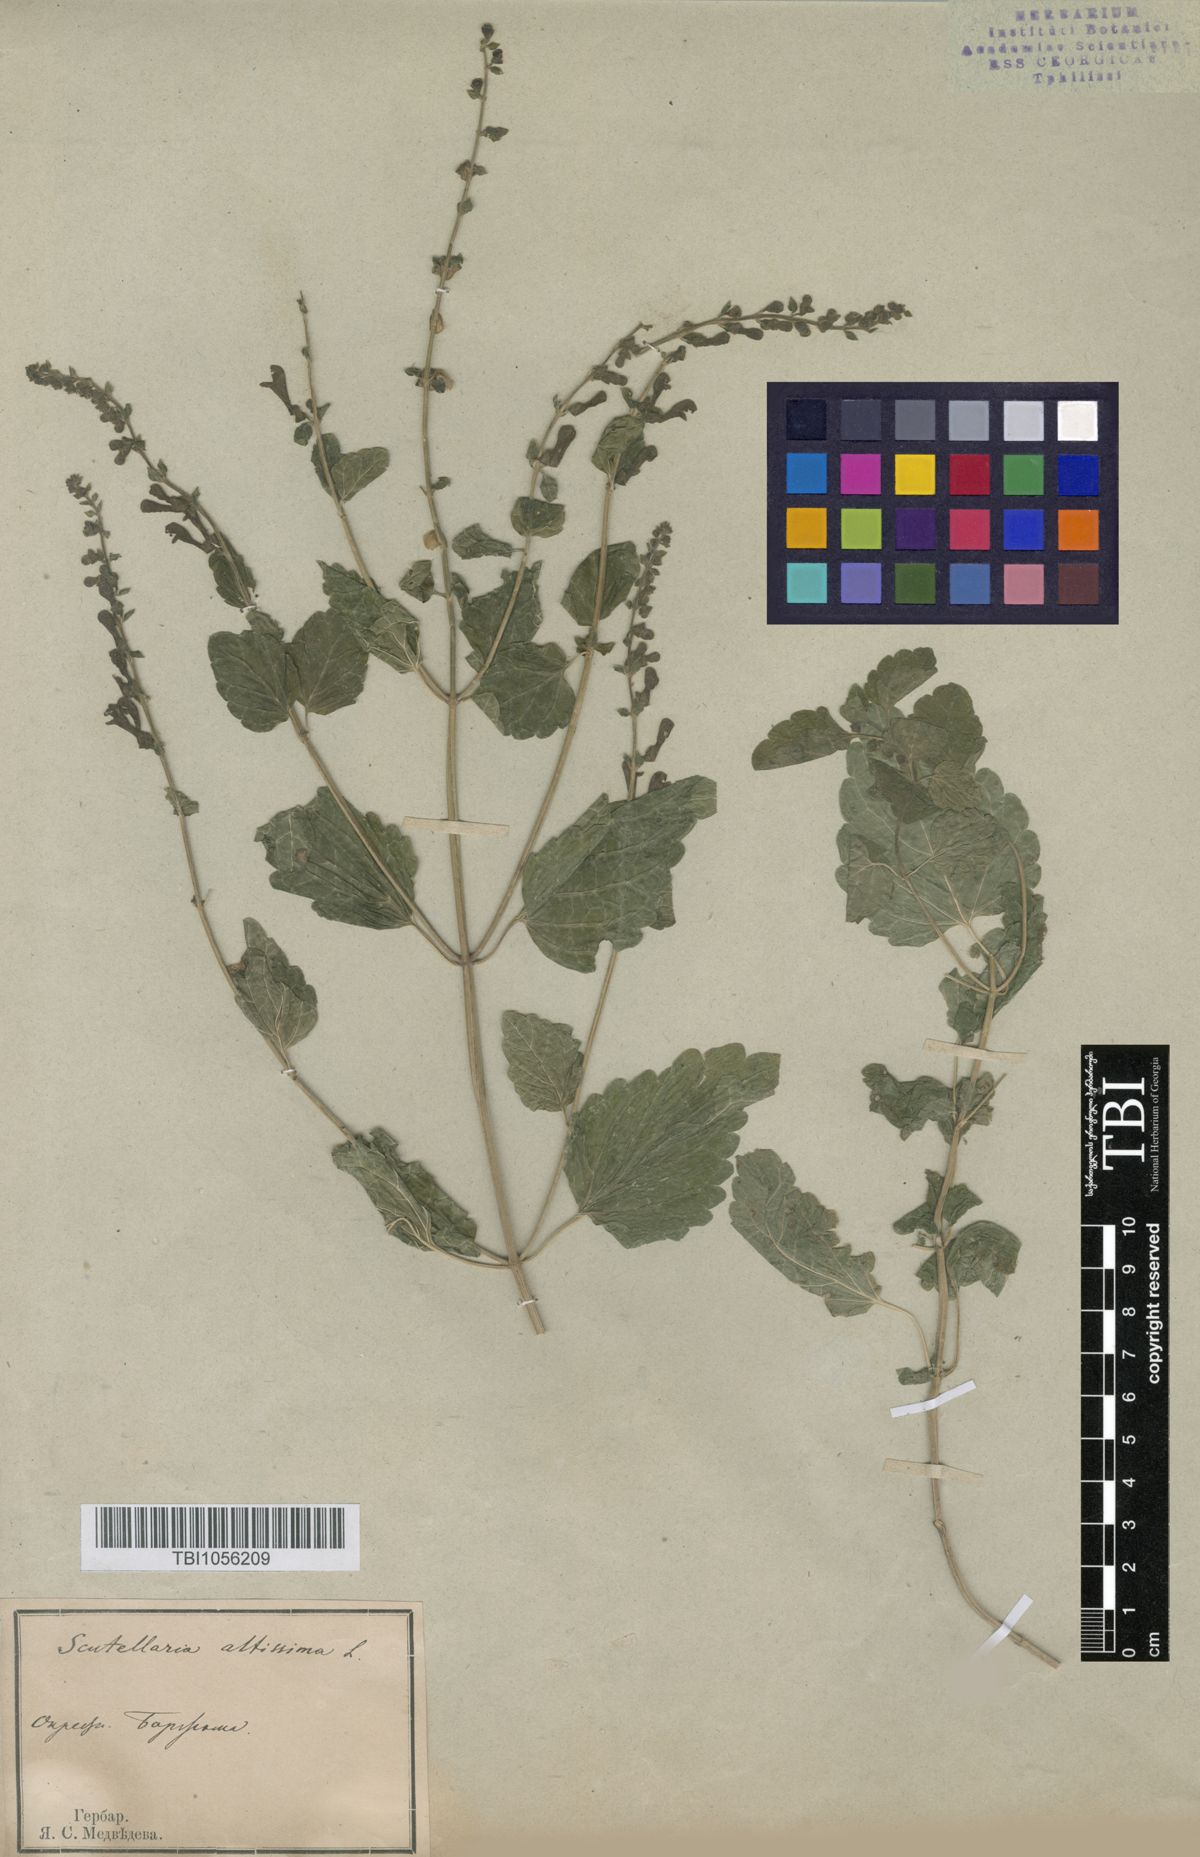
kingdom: Plantae
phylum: Tracheophyta
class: Magnoliopsida
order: Lamiales
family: Lamiaceae
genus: Scutellaria
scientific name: Scutellaria altissima
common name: Somerset skullcap
